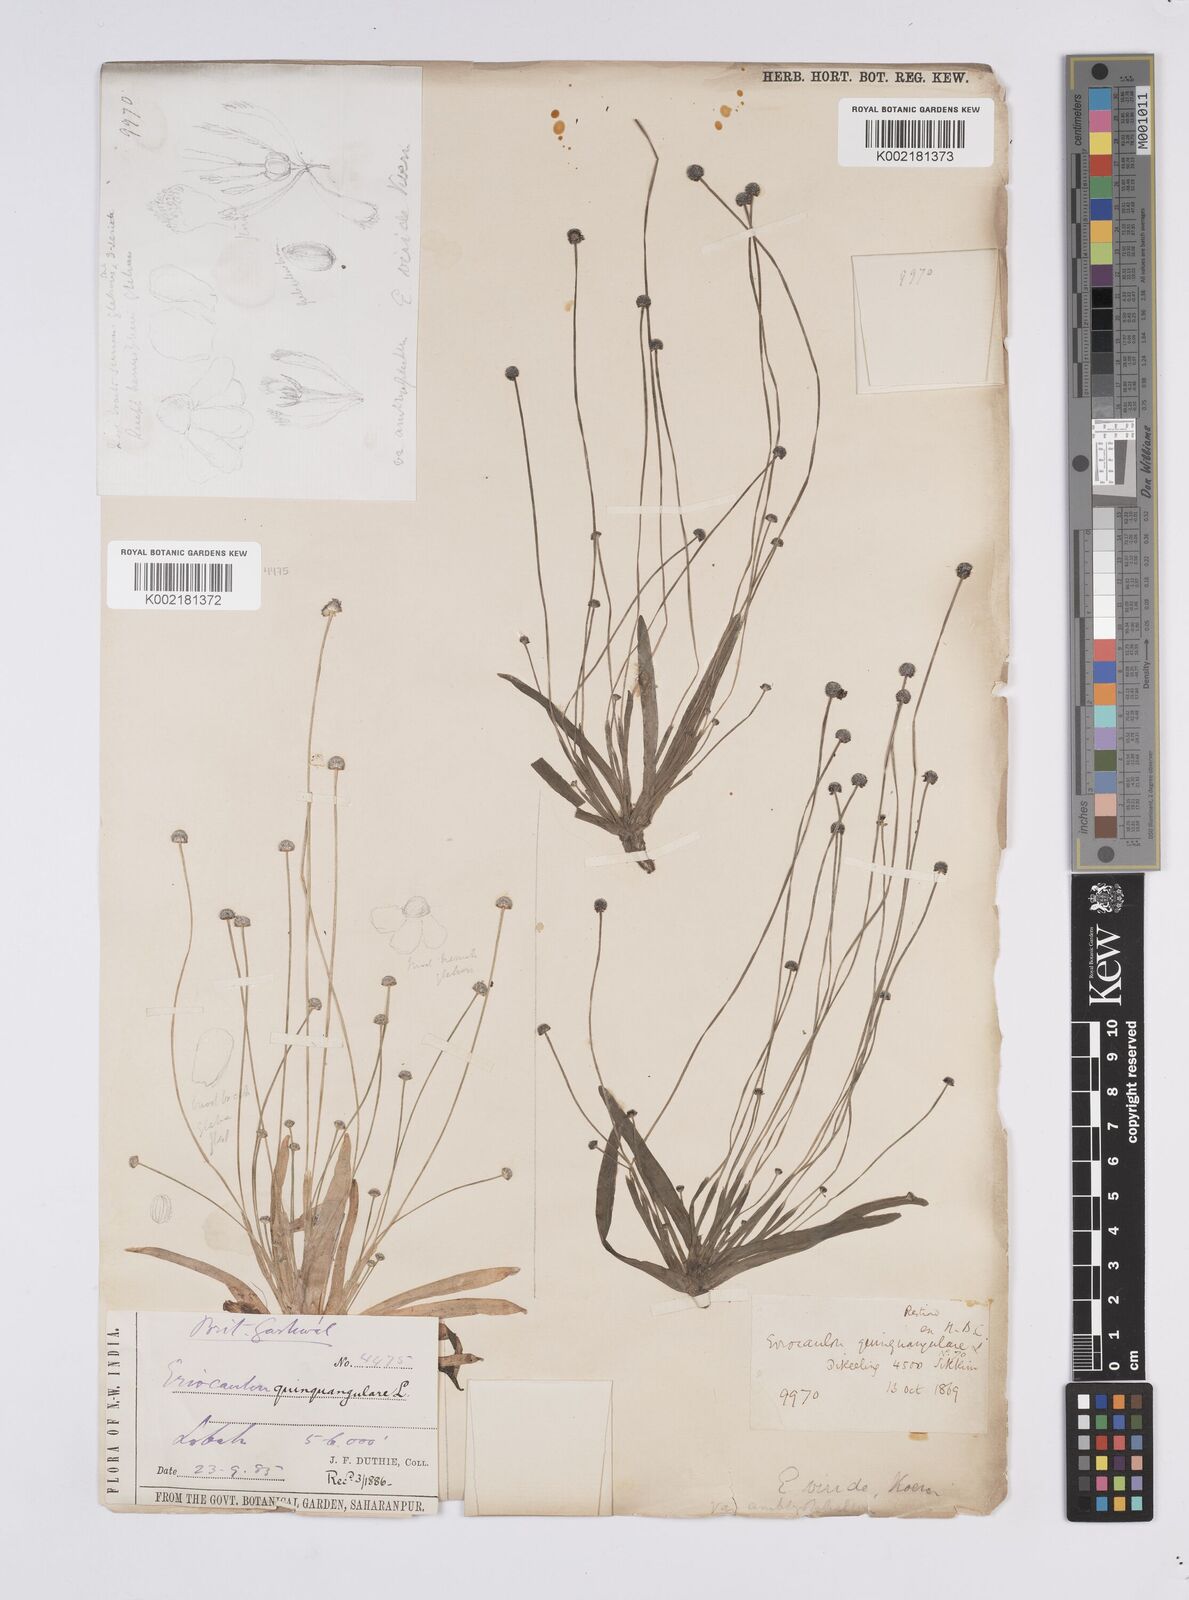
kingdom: Plantae
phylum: Tracheophyta
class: Liliopsida
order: Poales
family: Eriocaulaceae
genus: Eriocaulon
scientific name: Eriocaulon nepalense
